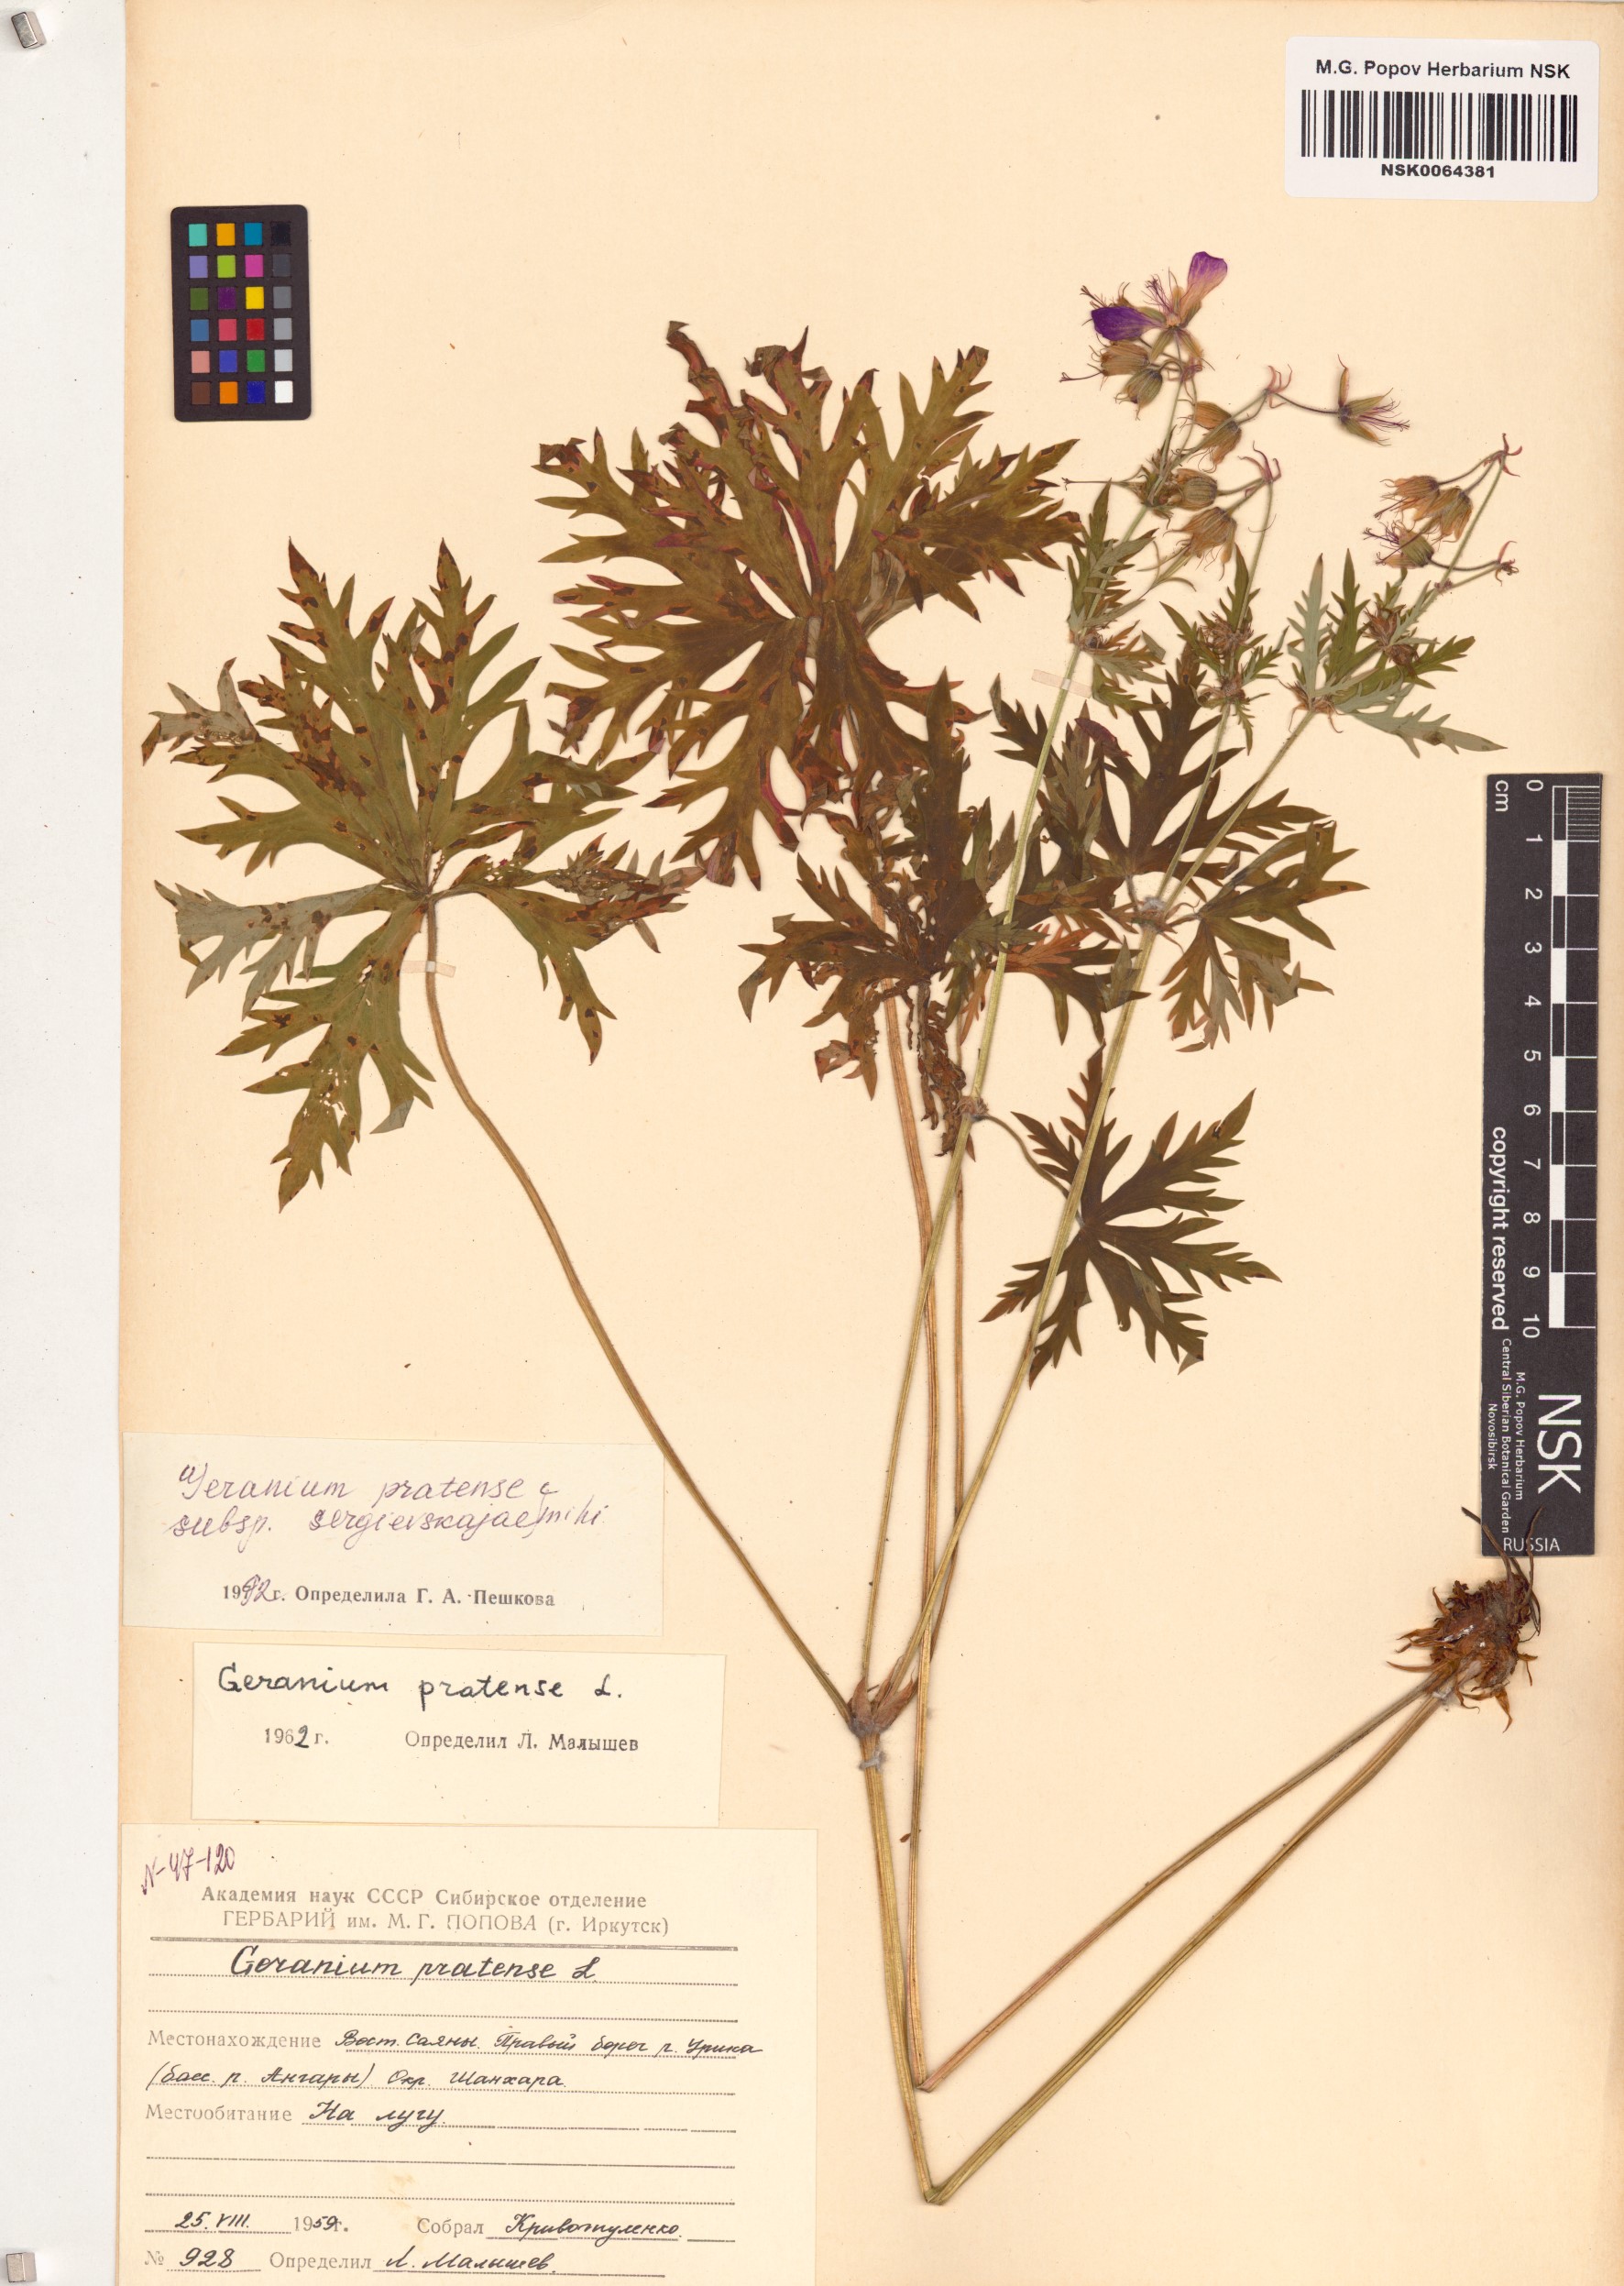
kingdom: Plantae
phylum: Tracheophyta
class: Magnoliopsida
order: Geraniales
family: Geraniaceae
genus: Geranium
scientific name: Geranium pratense
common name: Meadow crane's-bill
